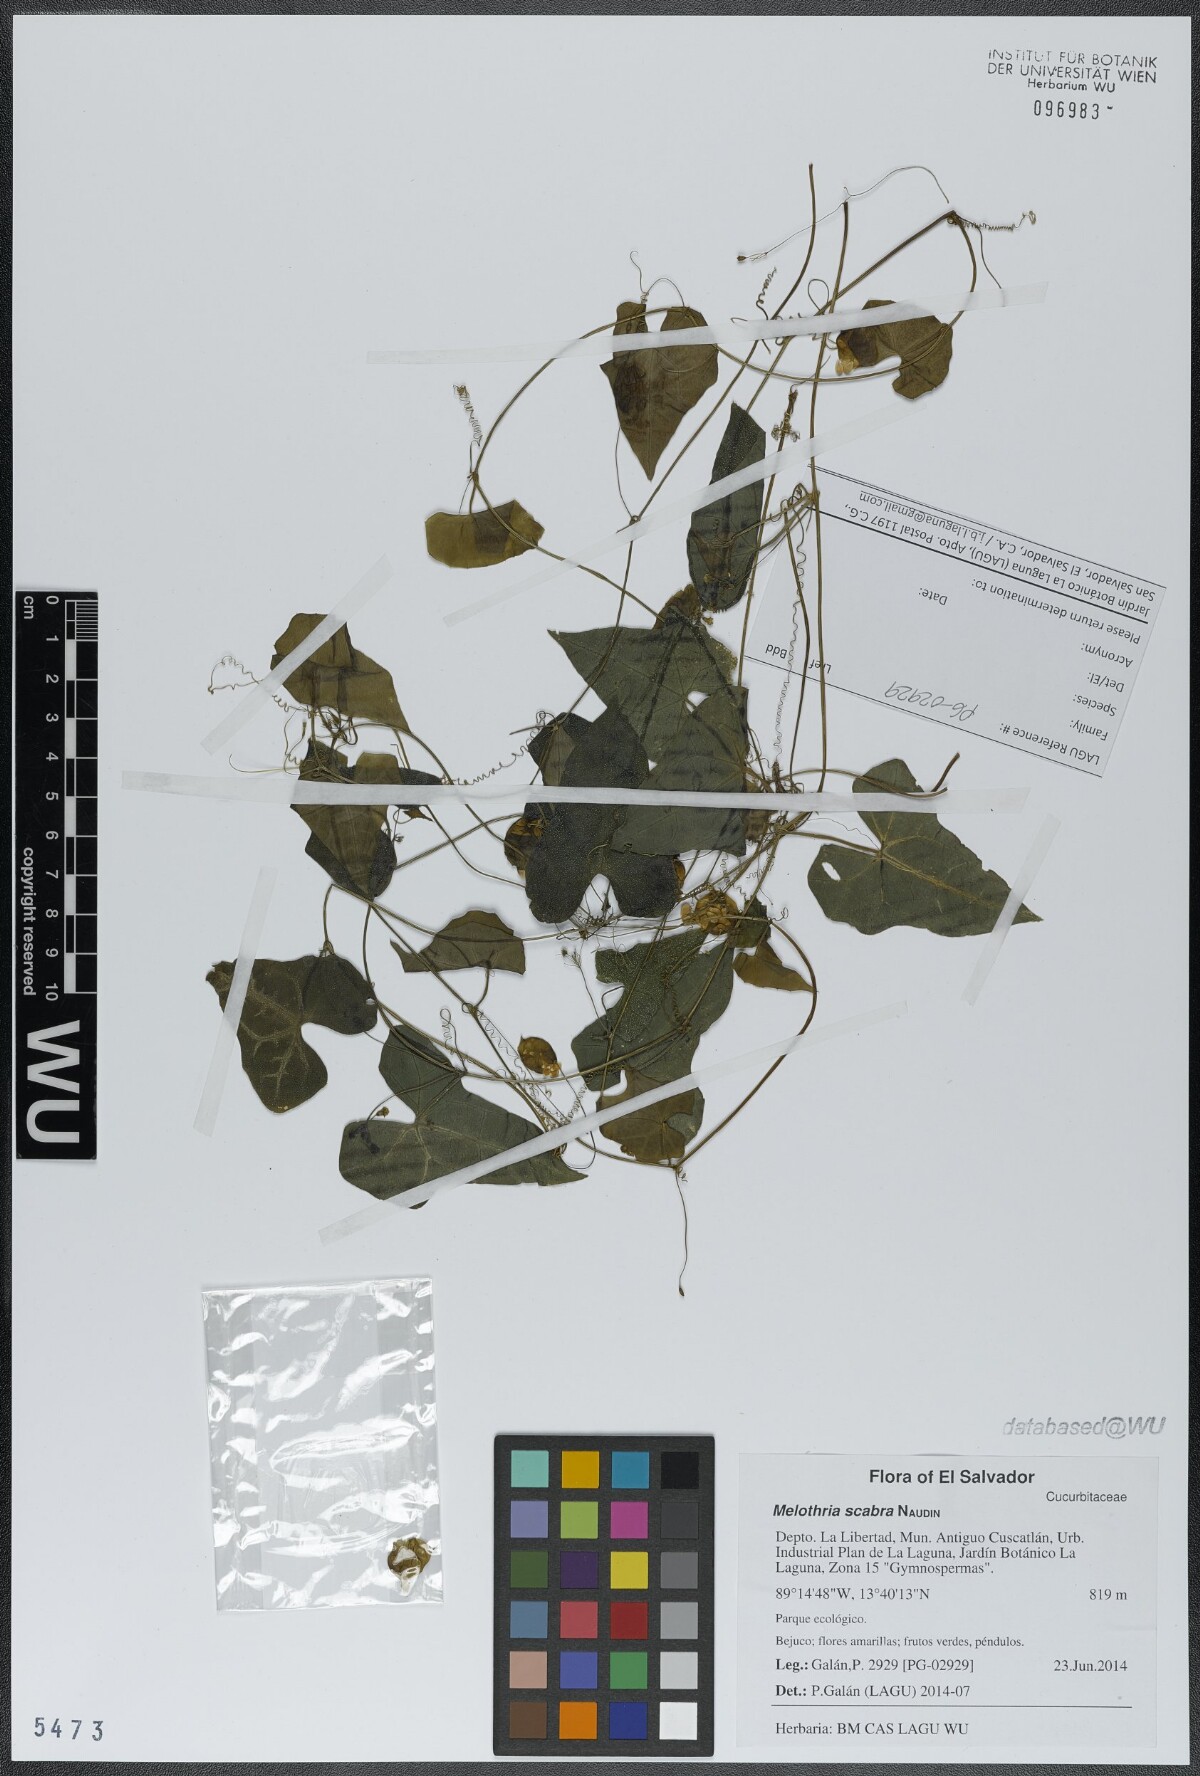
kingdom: Plantae
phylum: Tracheophyta
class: Magnoliopsida
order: Cucurbitales
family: Cucurbitaceae
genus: Melothria
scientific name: Melothria scabra
